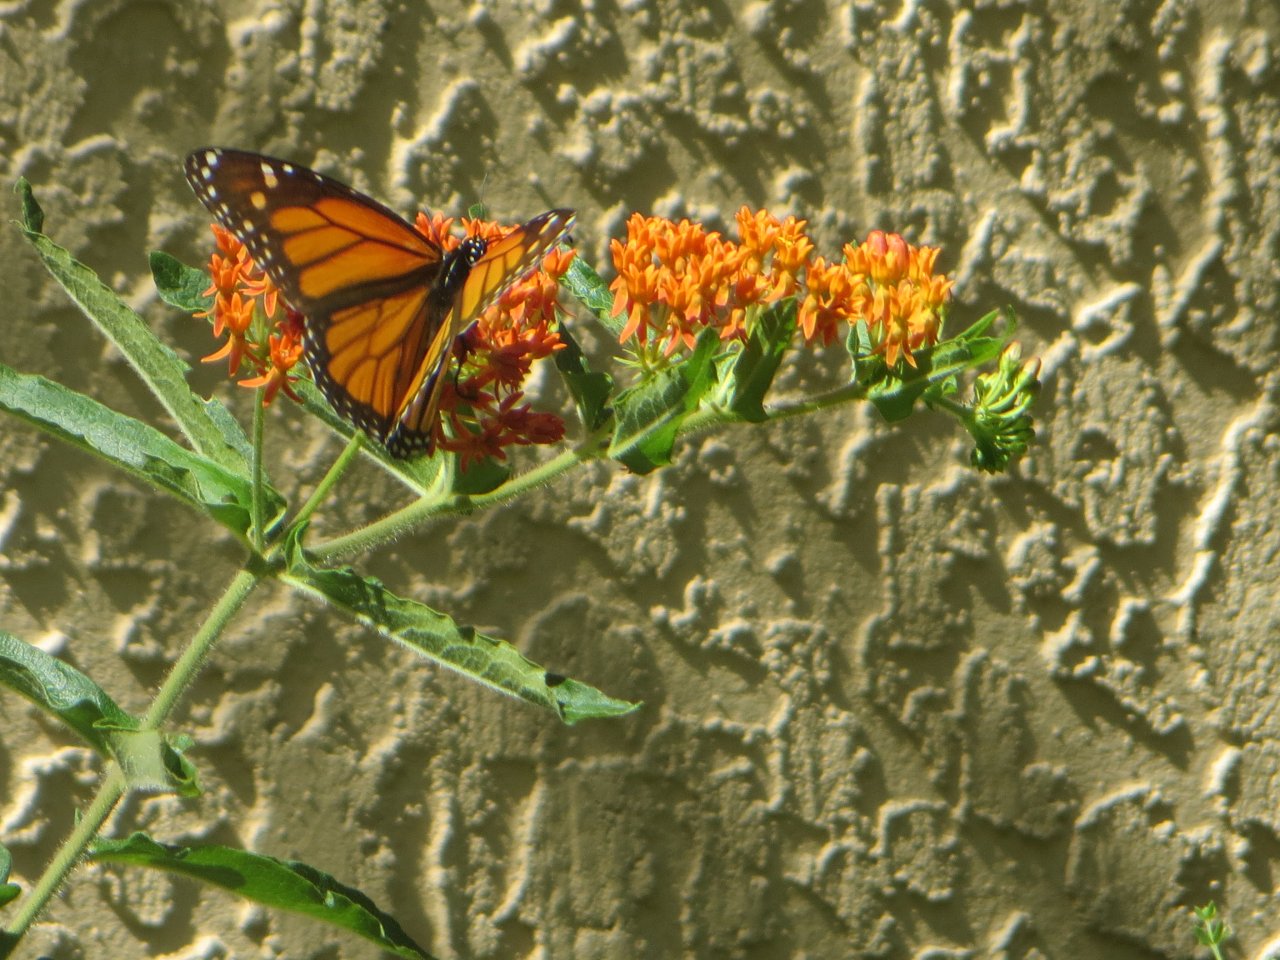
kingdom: Animalia
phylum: Arthropoda
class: Insecta
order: Lepidoptera
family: Nymphalidae
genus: Danaus
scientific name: Danaus plexippus
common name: Monarch
